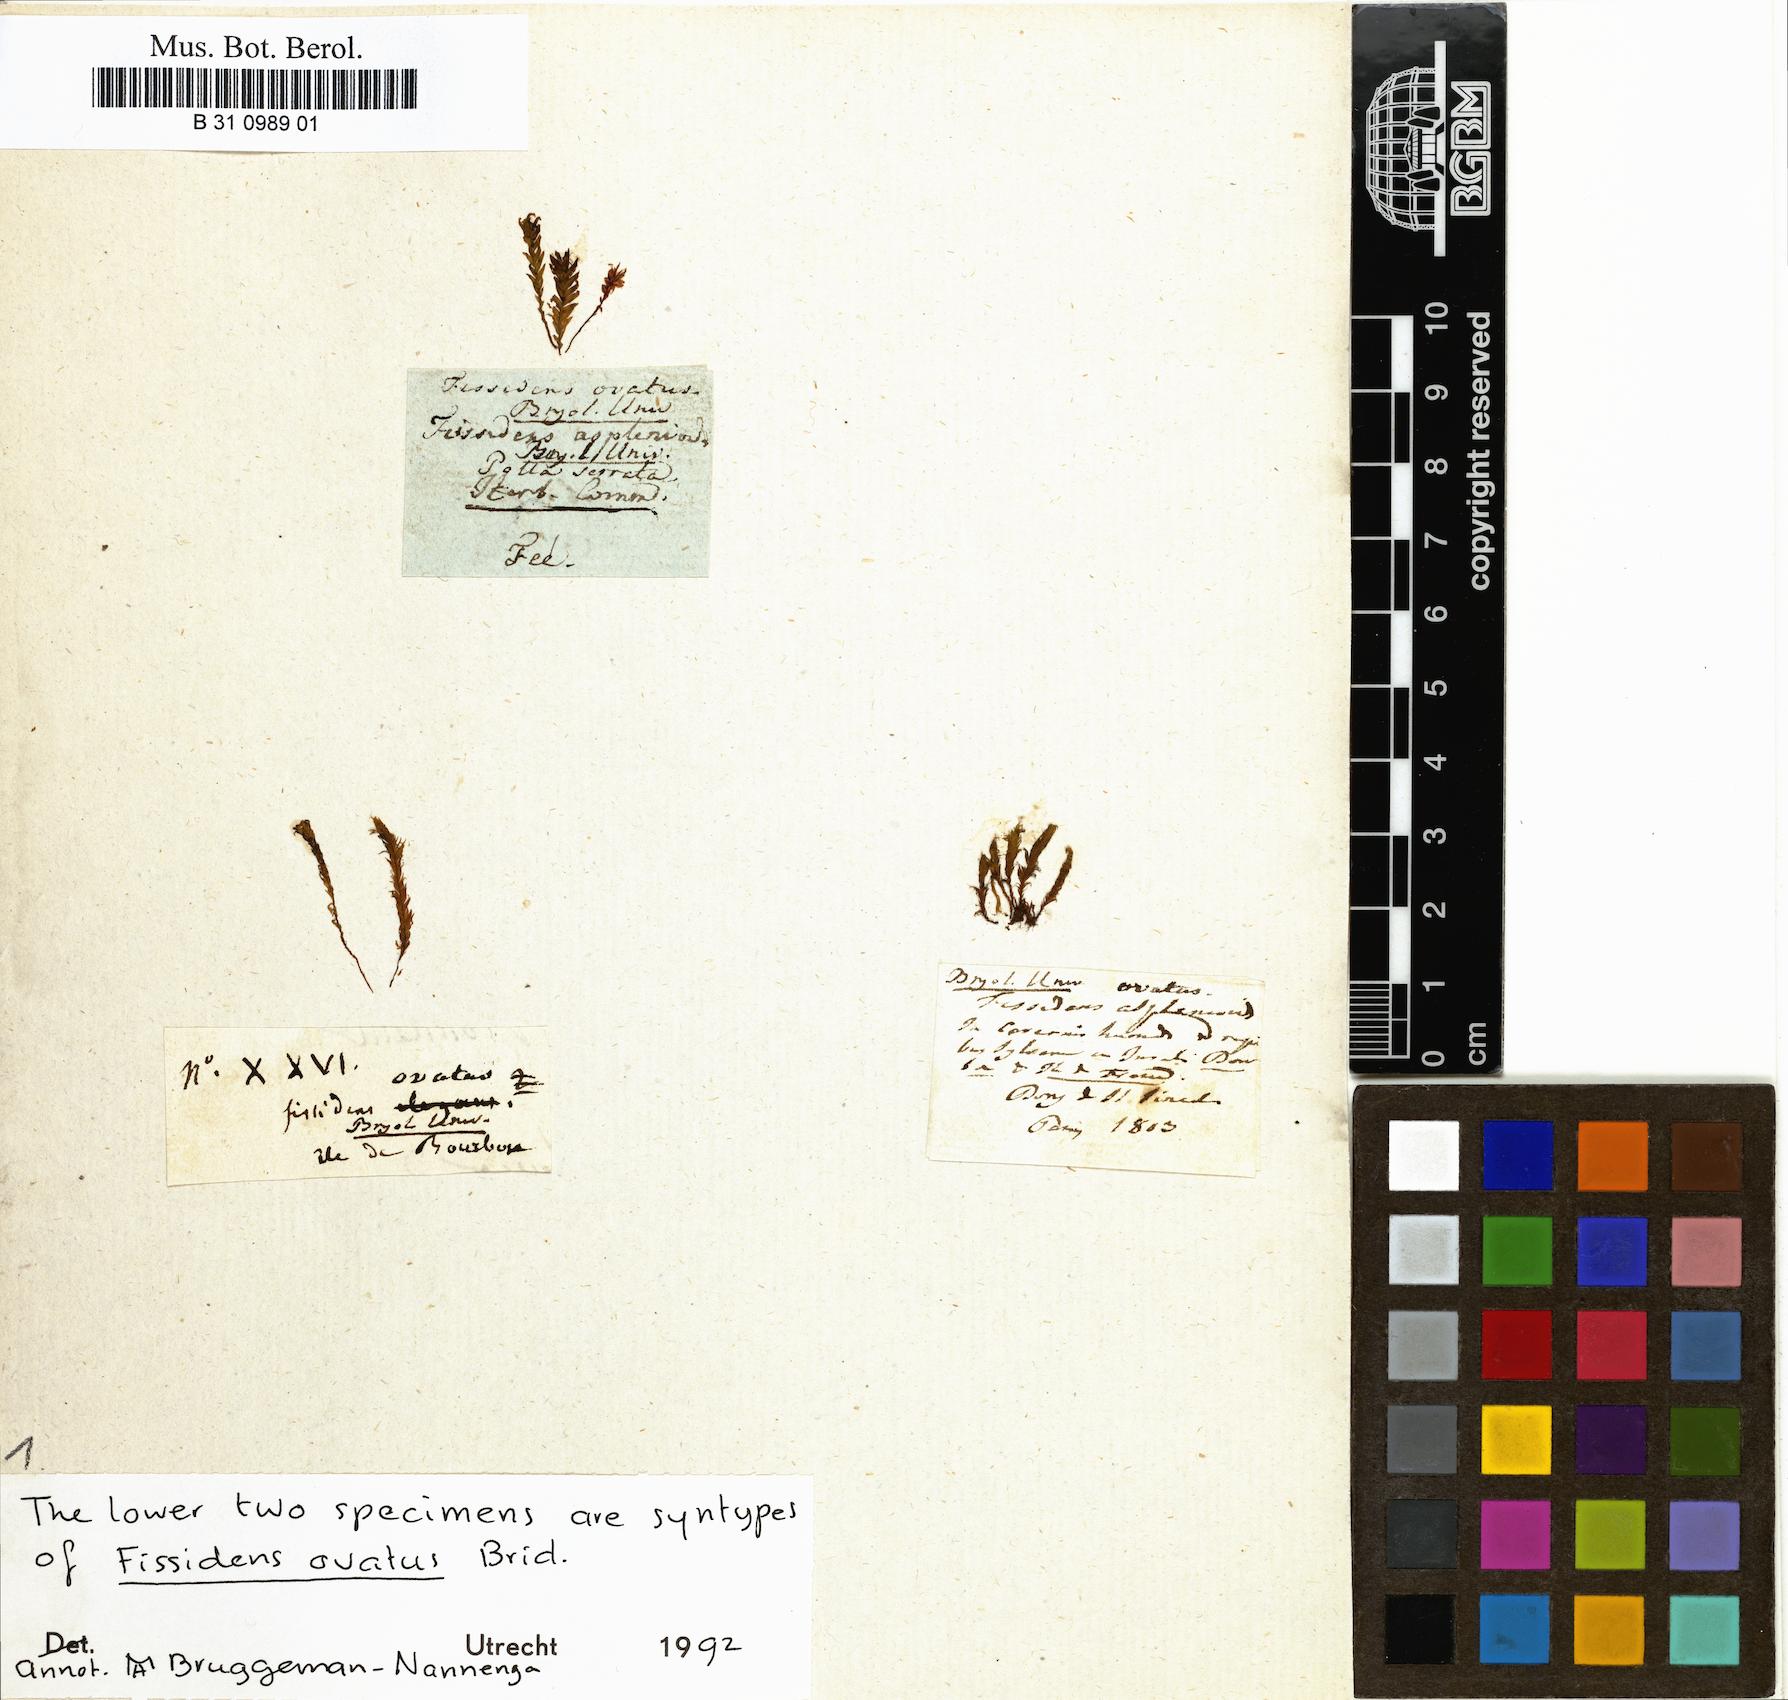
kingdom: Plantae
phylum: Bryophyta
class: Bryopsida
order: Dicranales
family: Fissidentaceae
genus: Fissidens
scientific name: Fissidens ovatus
